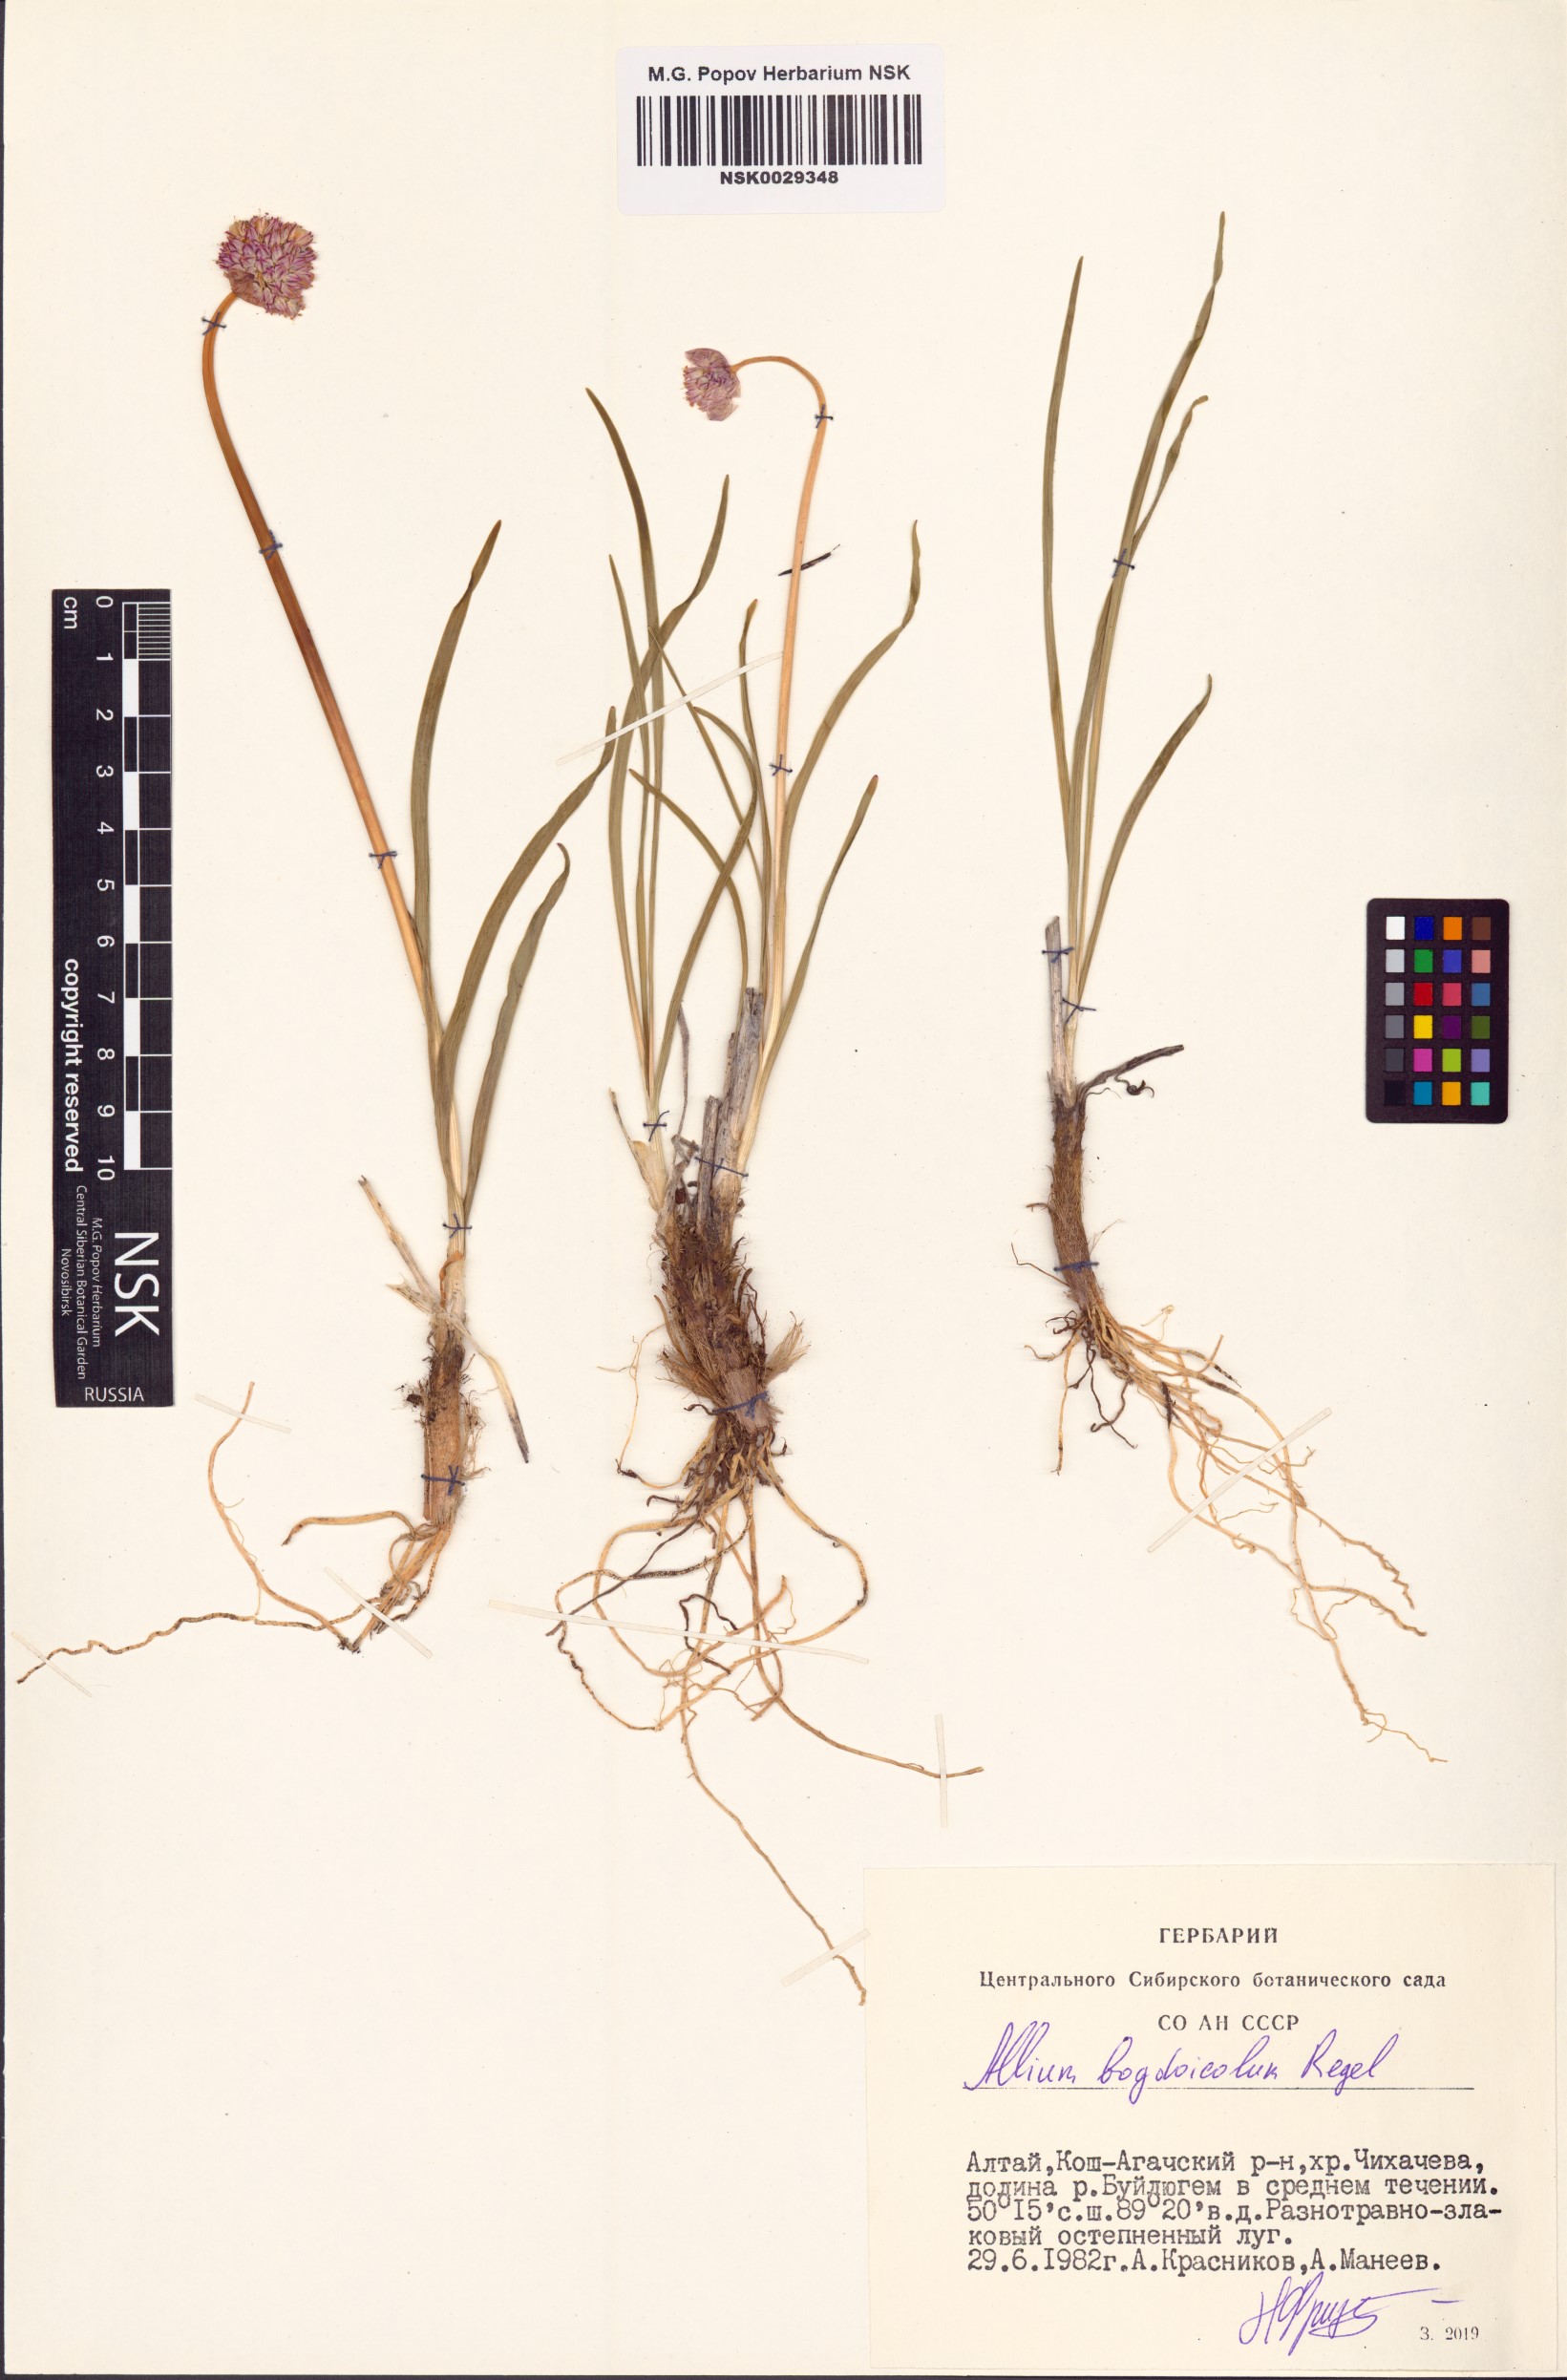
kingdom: Plantae
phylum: Tracheophyta
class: Liliopsida
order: Asparagales
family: Amaryllidaceae
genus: Allium
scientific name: Allium schrenkii
